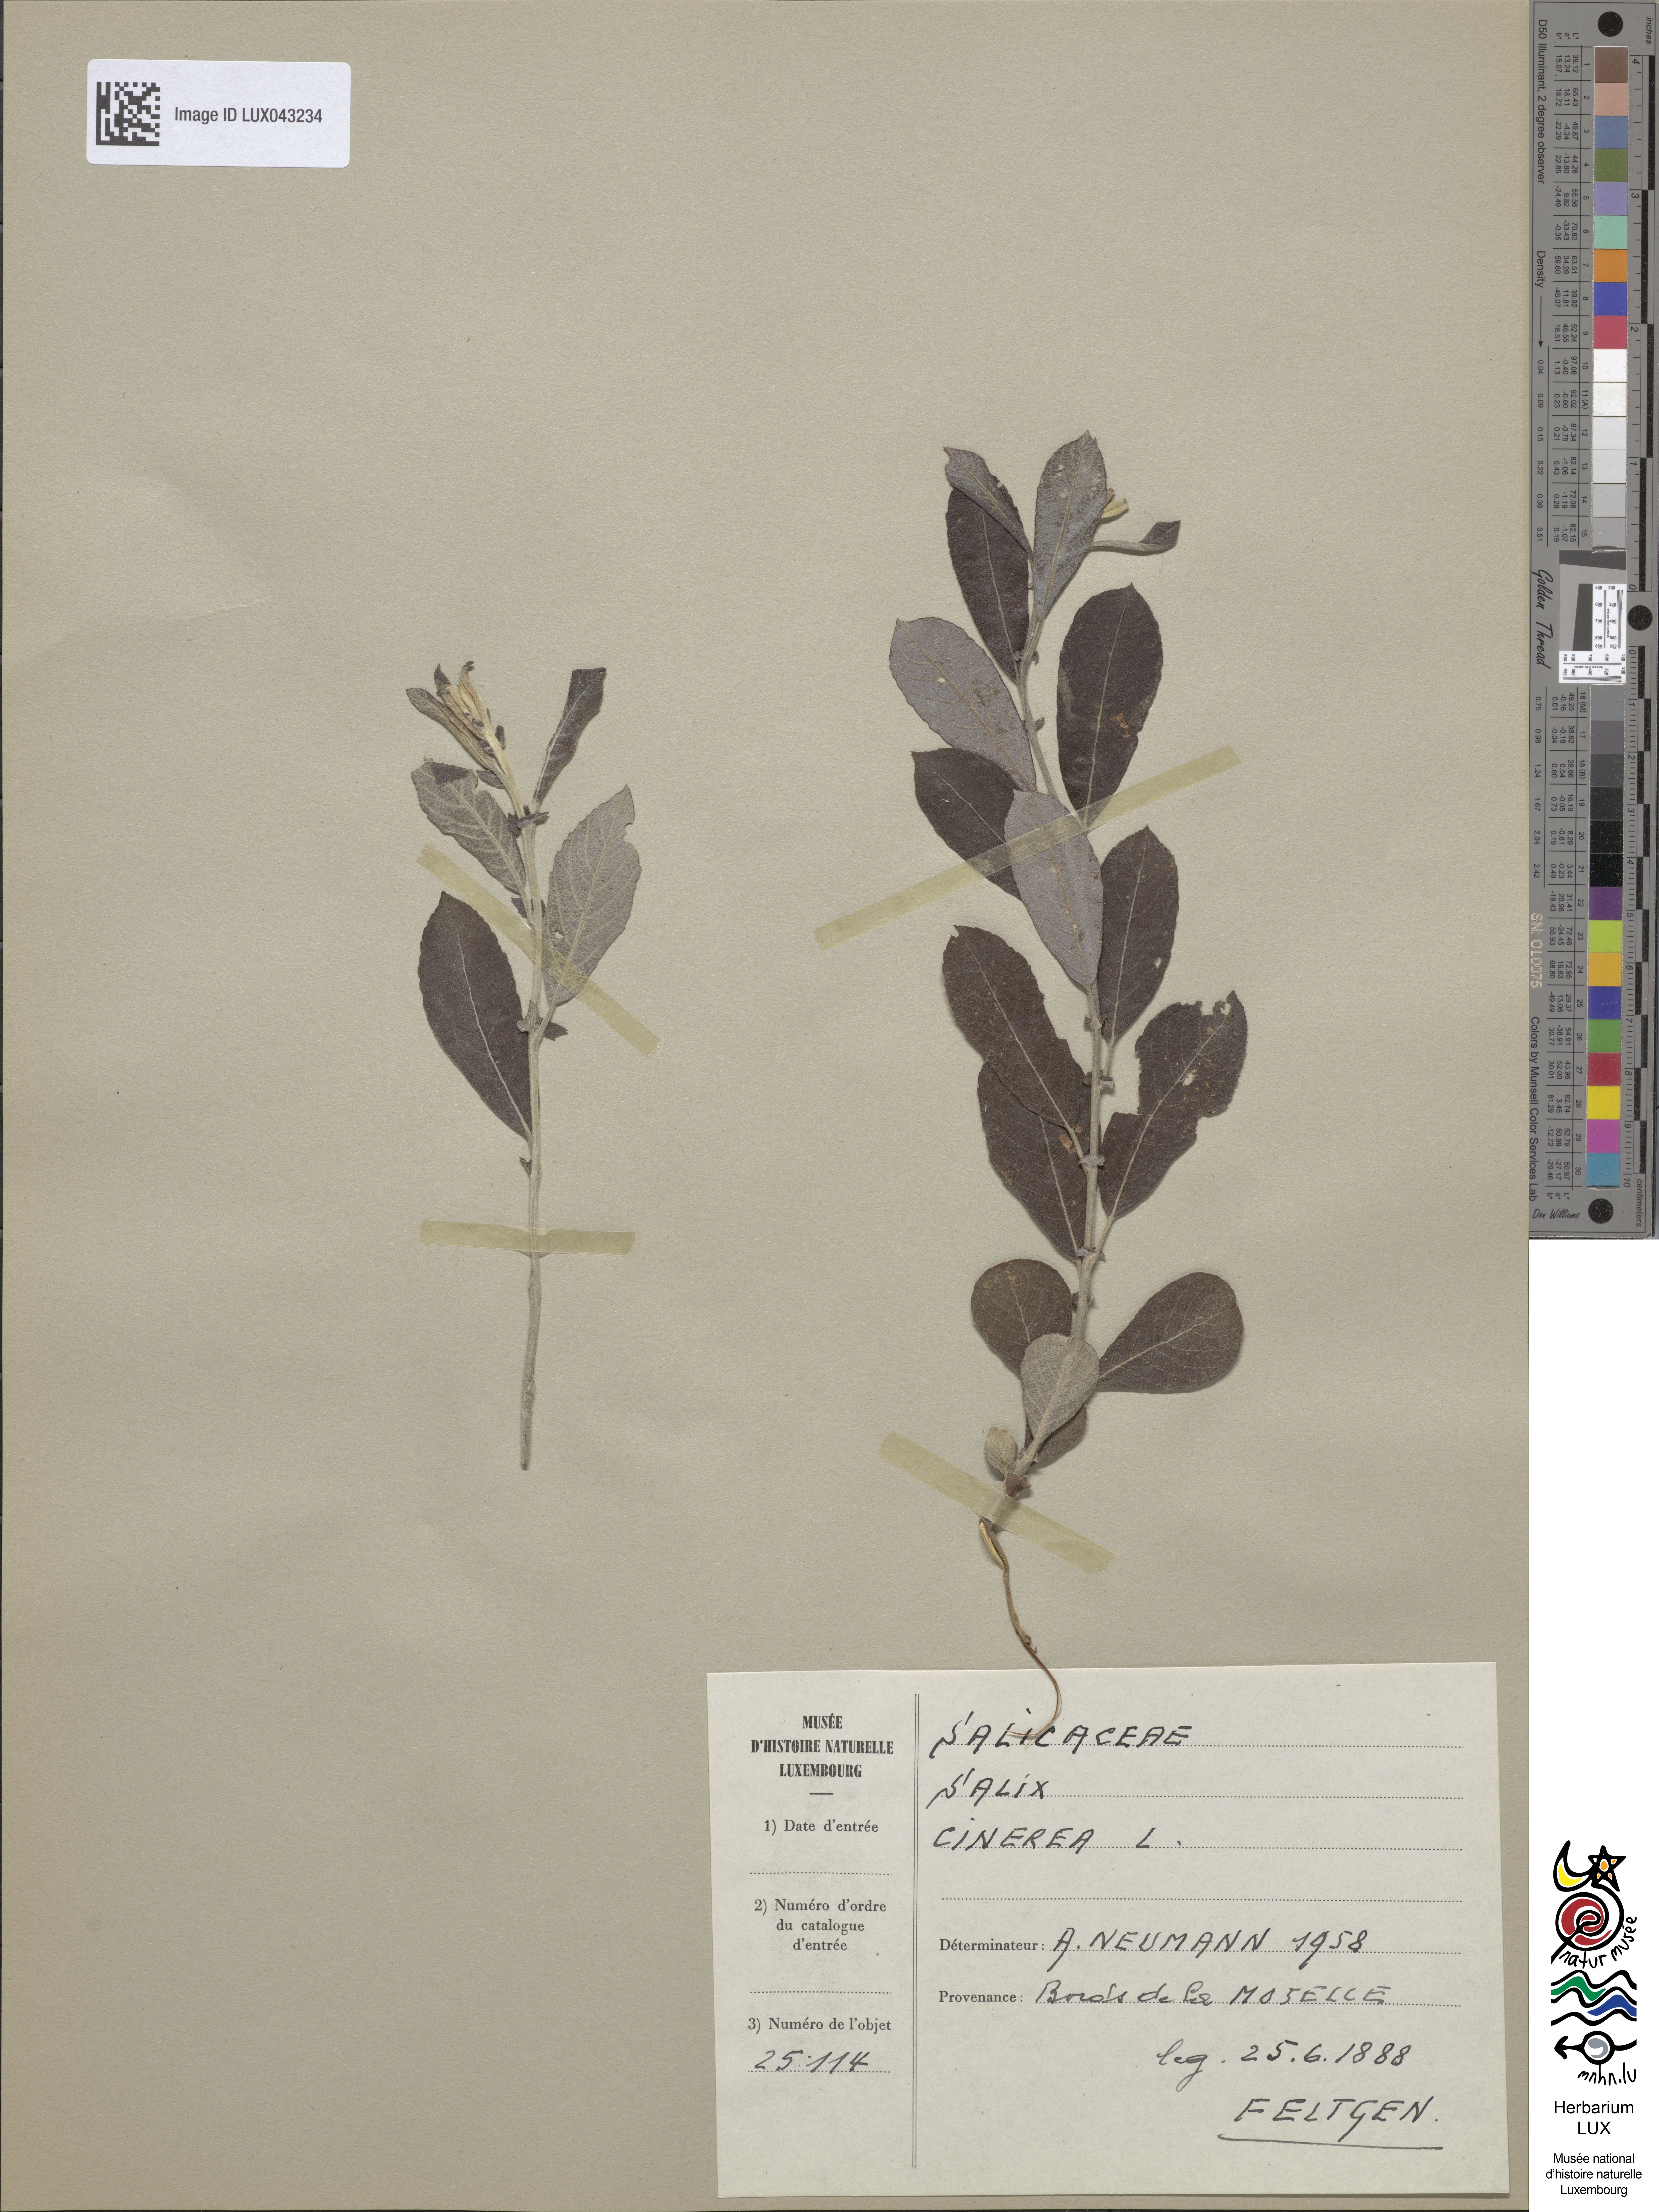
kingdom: Plantae
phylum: Tracheophyta
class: Magnoliopsida
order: Malpighiales
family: Salicaceae
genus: Salix
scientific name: Salix cinerea
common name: Common sallow
